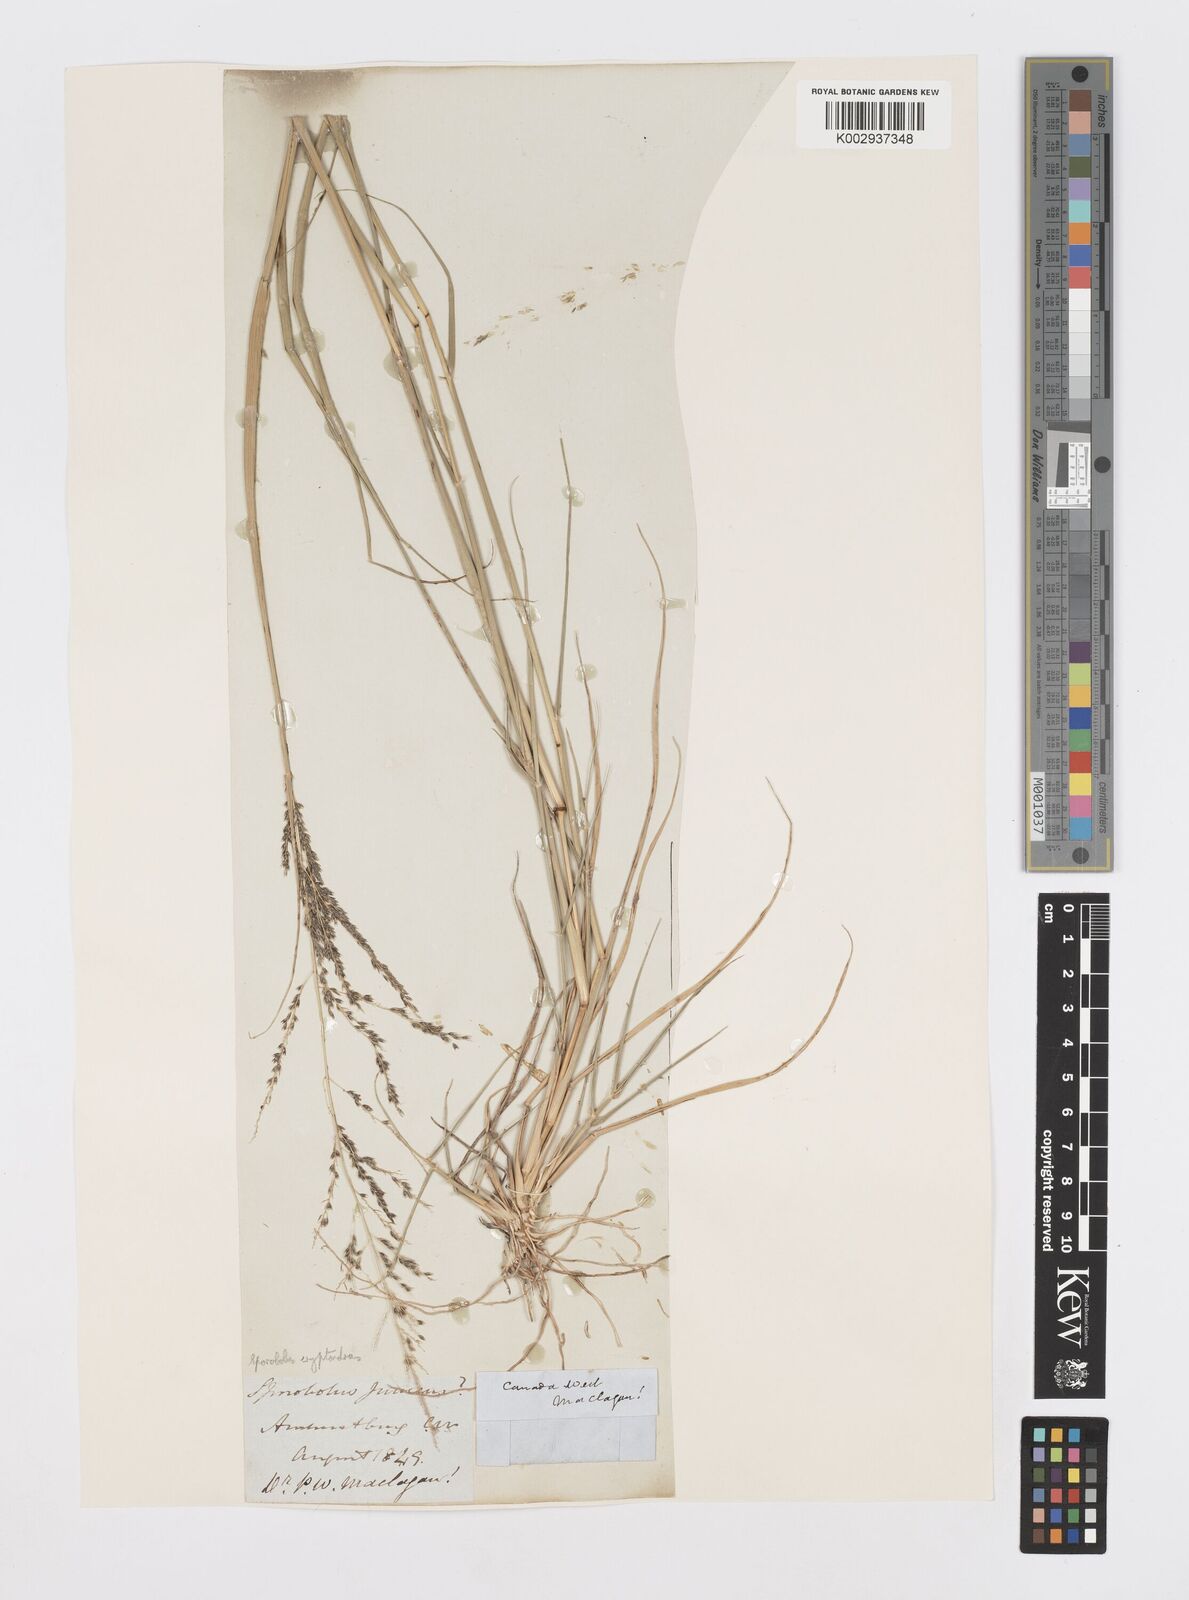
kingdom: Plantae
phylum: Tracheophyta
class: Liliopsida
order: Poales
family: Poaceae
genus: Sporobolus
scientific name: Sporobolus cryptandrus
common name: Sand dropseed
